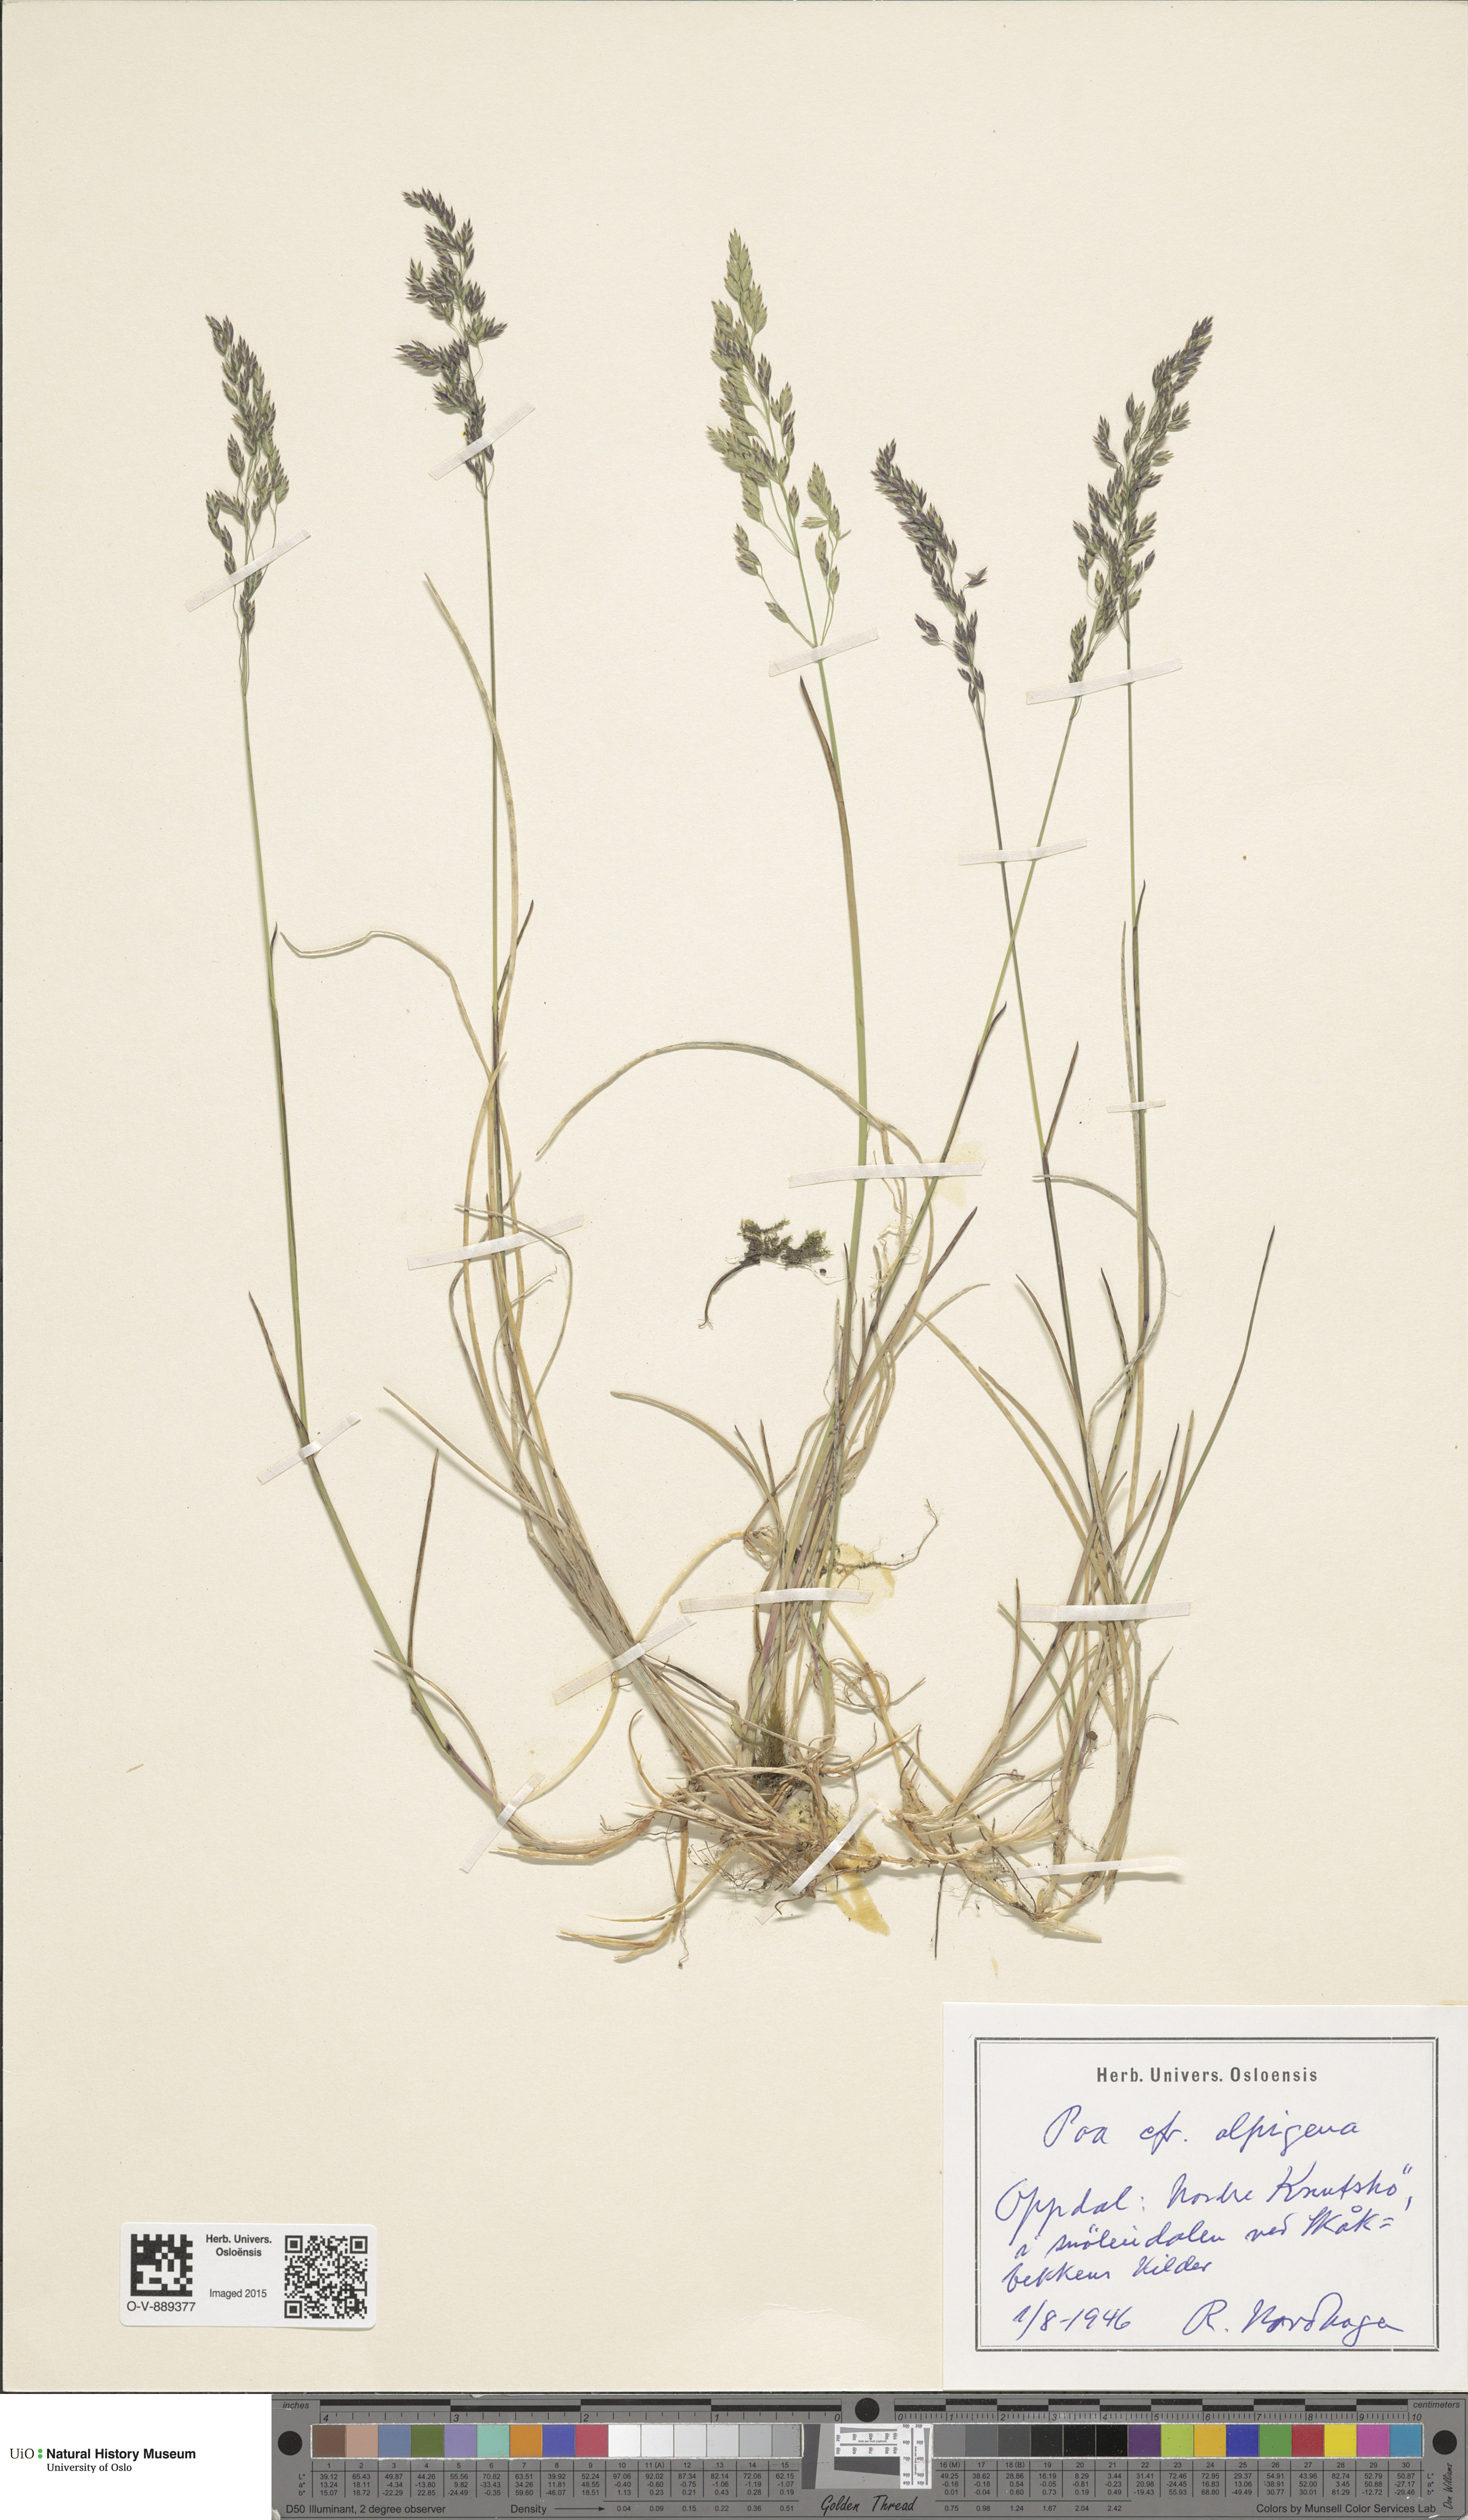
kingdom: Plantae
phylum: Tracheophyta
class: Liliopsida
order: Poales
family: Poaceae
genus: Poa
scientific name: Poa alpigena
